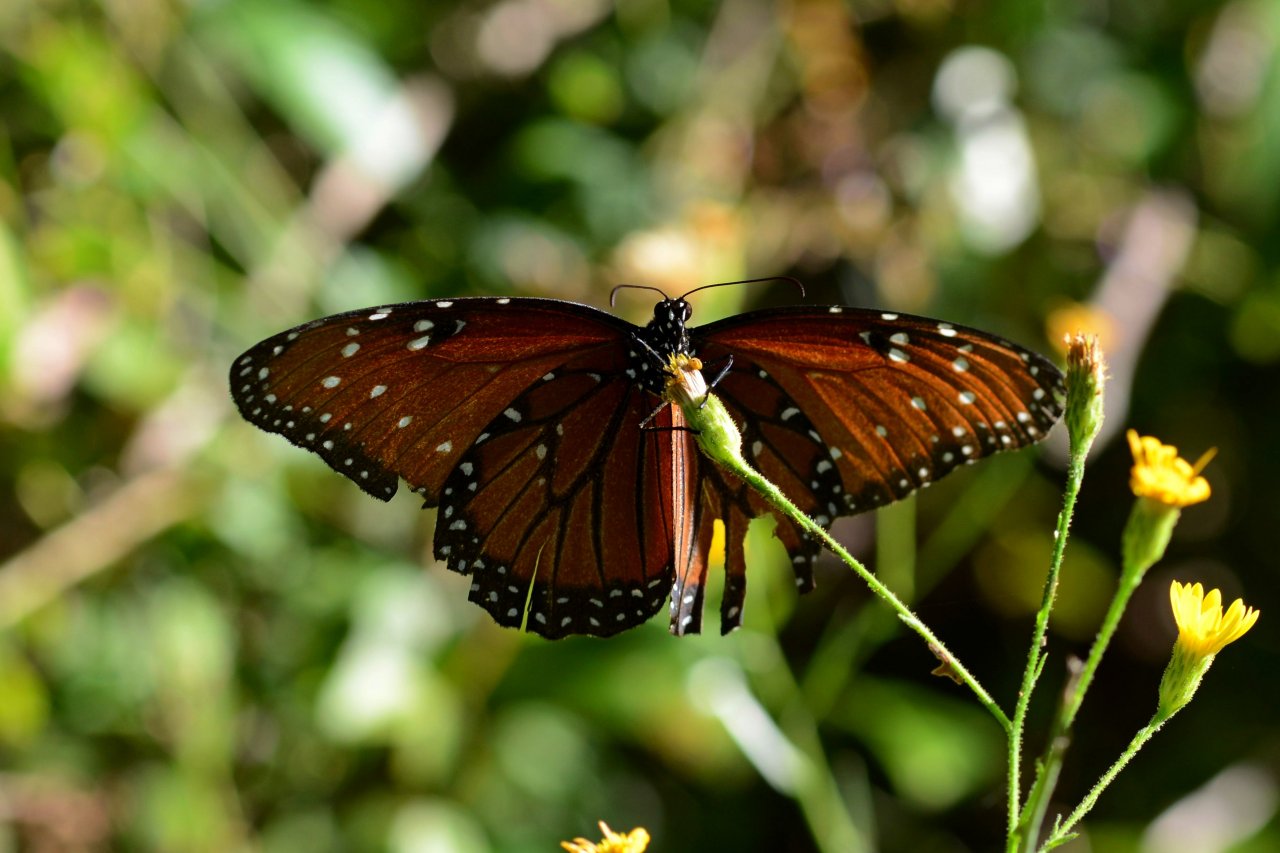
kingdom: Animalia
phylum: Arthropoda
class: Insecta
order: Lepidoptera
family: Nymphalidae
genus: Danaus
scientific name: Danaus gilippus
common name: Queen
